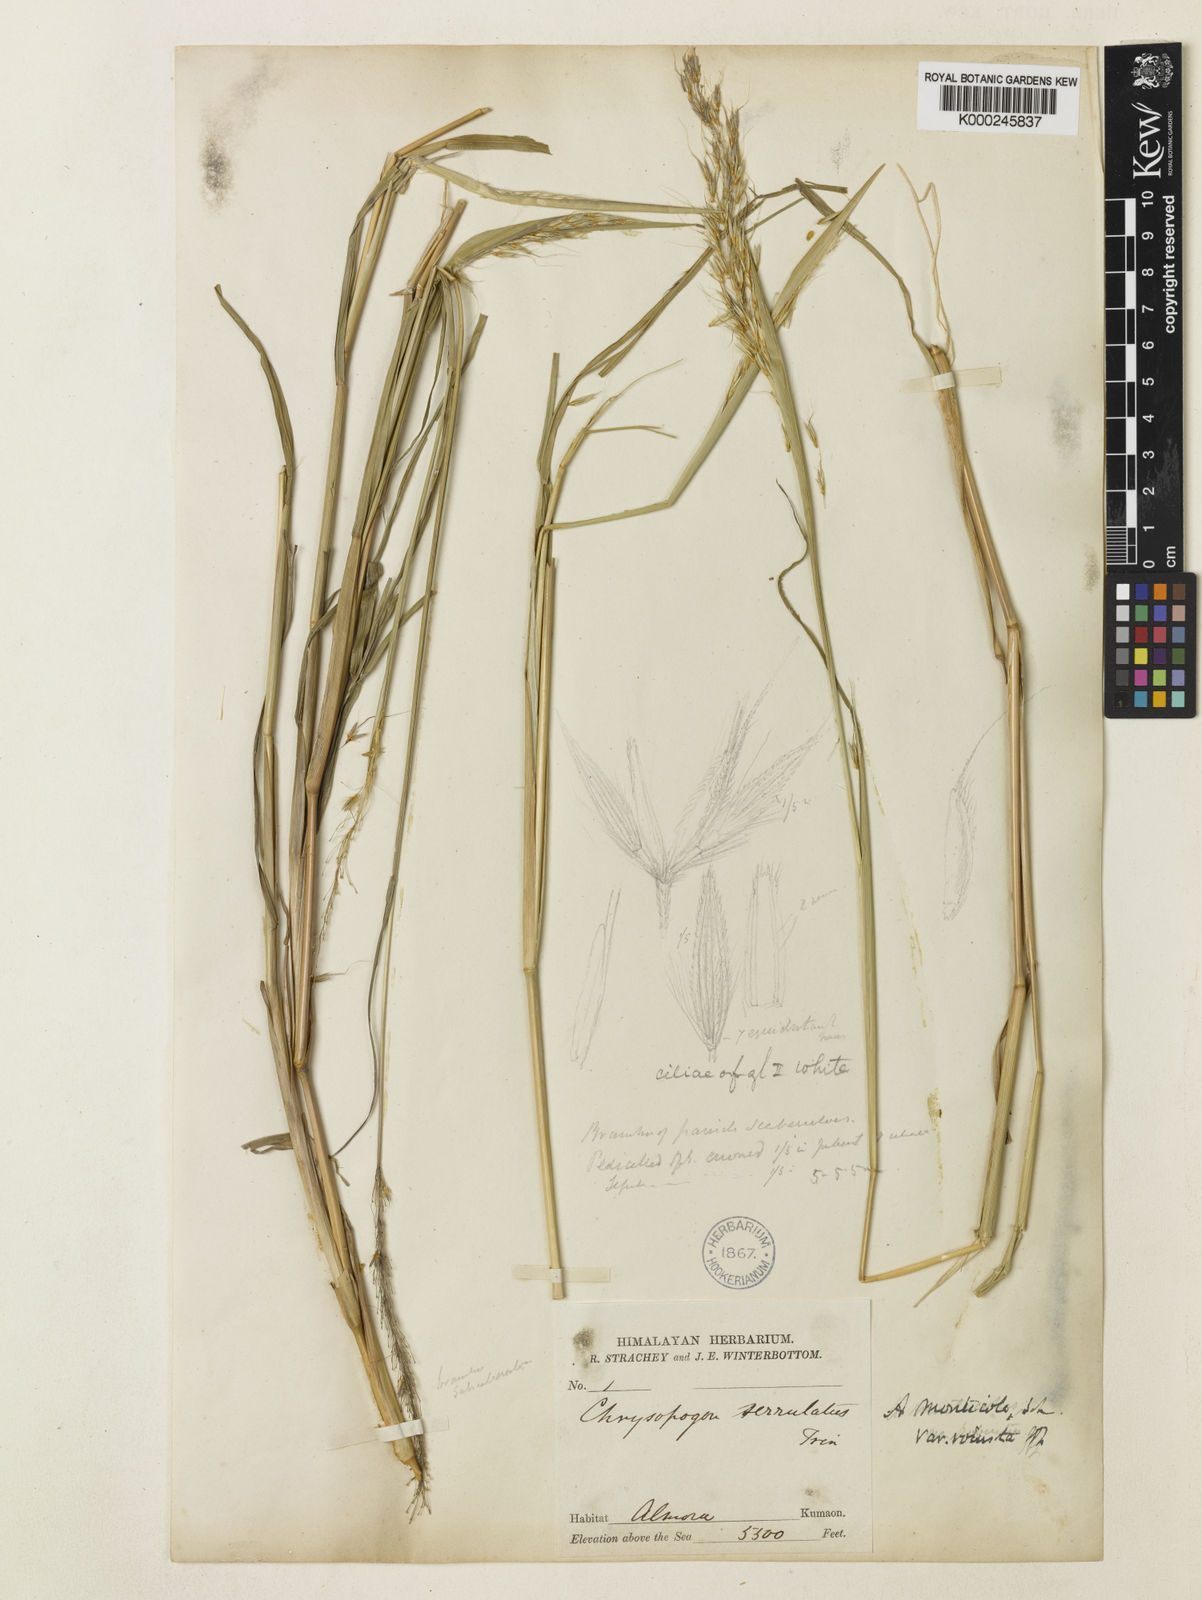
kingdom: Plantae
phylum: Tracheophyta
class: Liliopsida
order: Poales
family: Poaceae
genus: Chrysopogon
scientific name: Chrysopogon serrulatus
